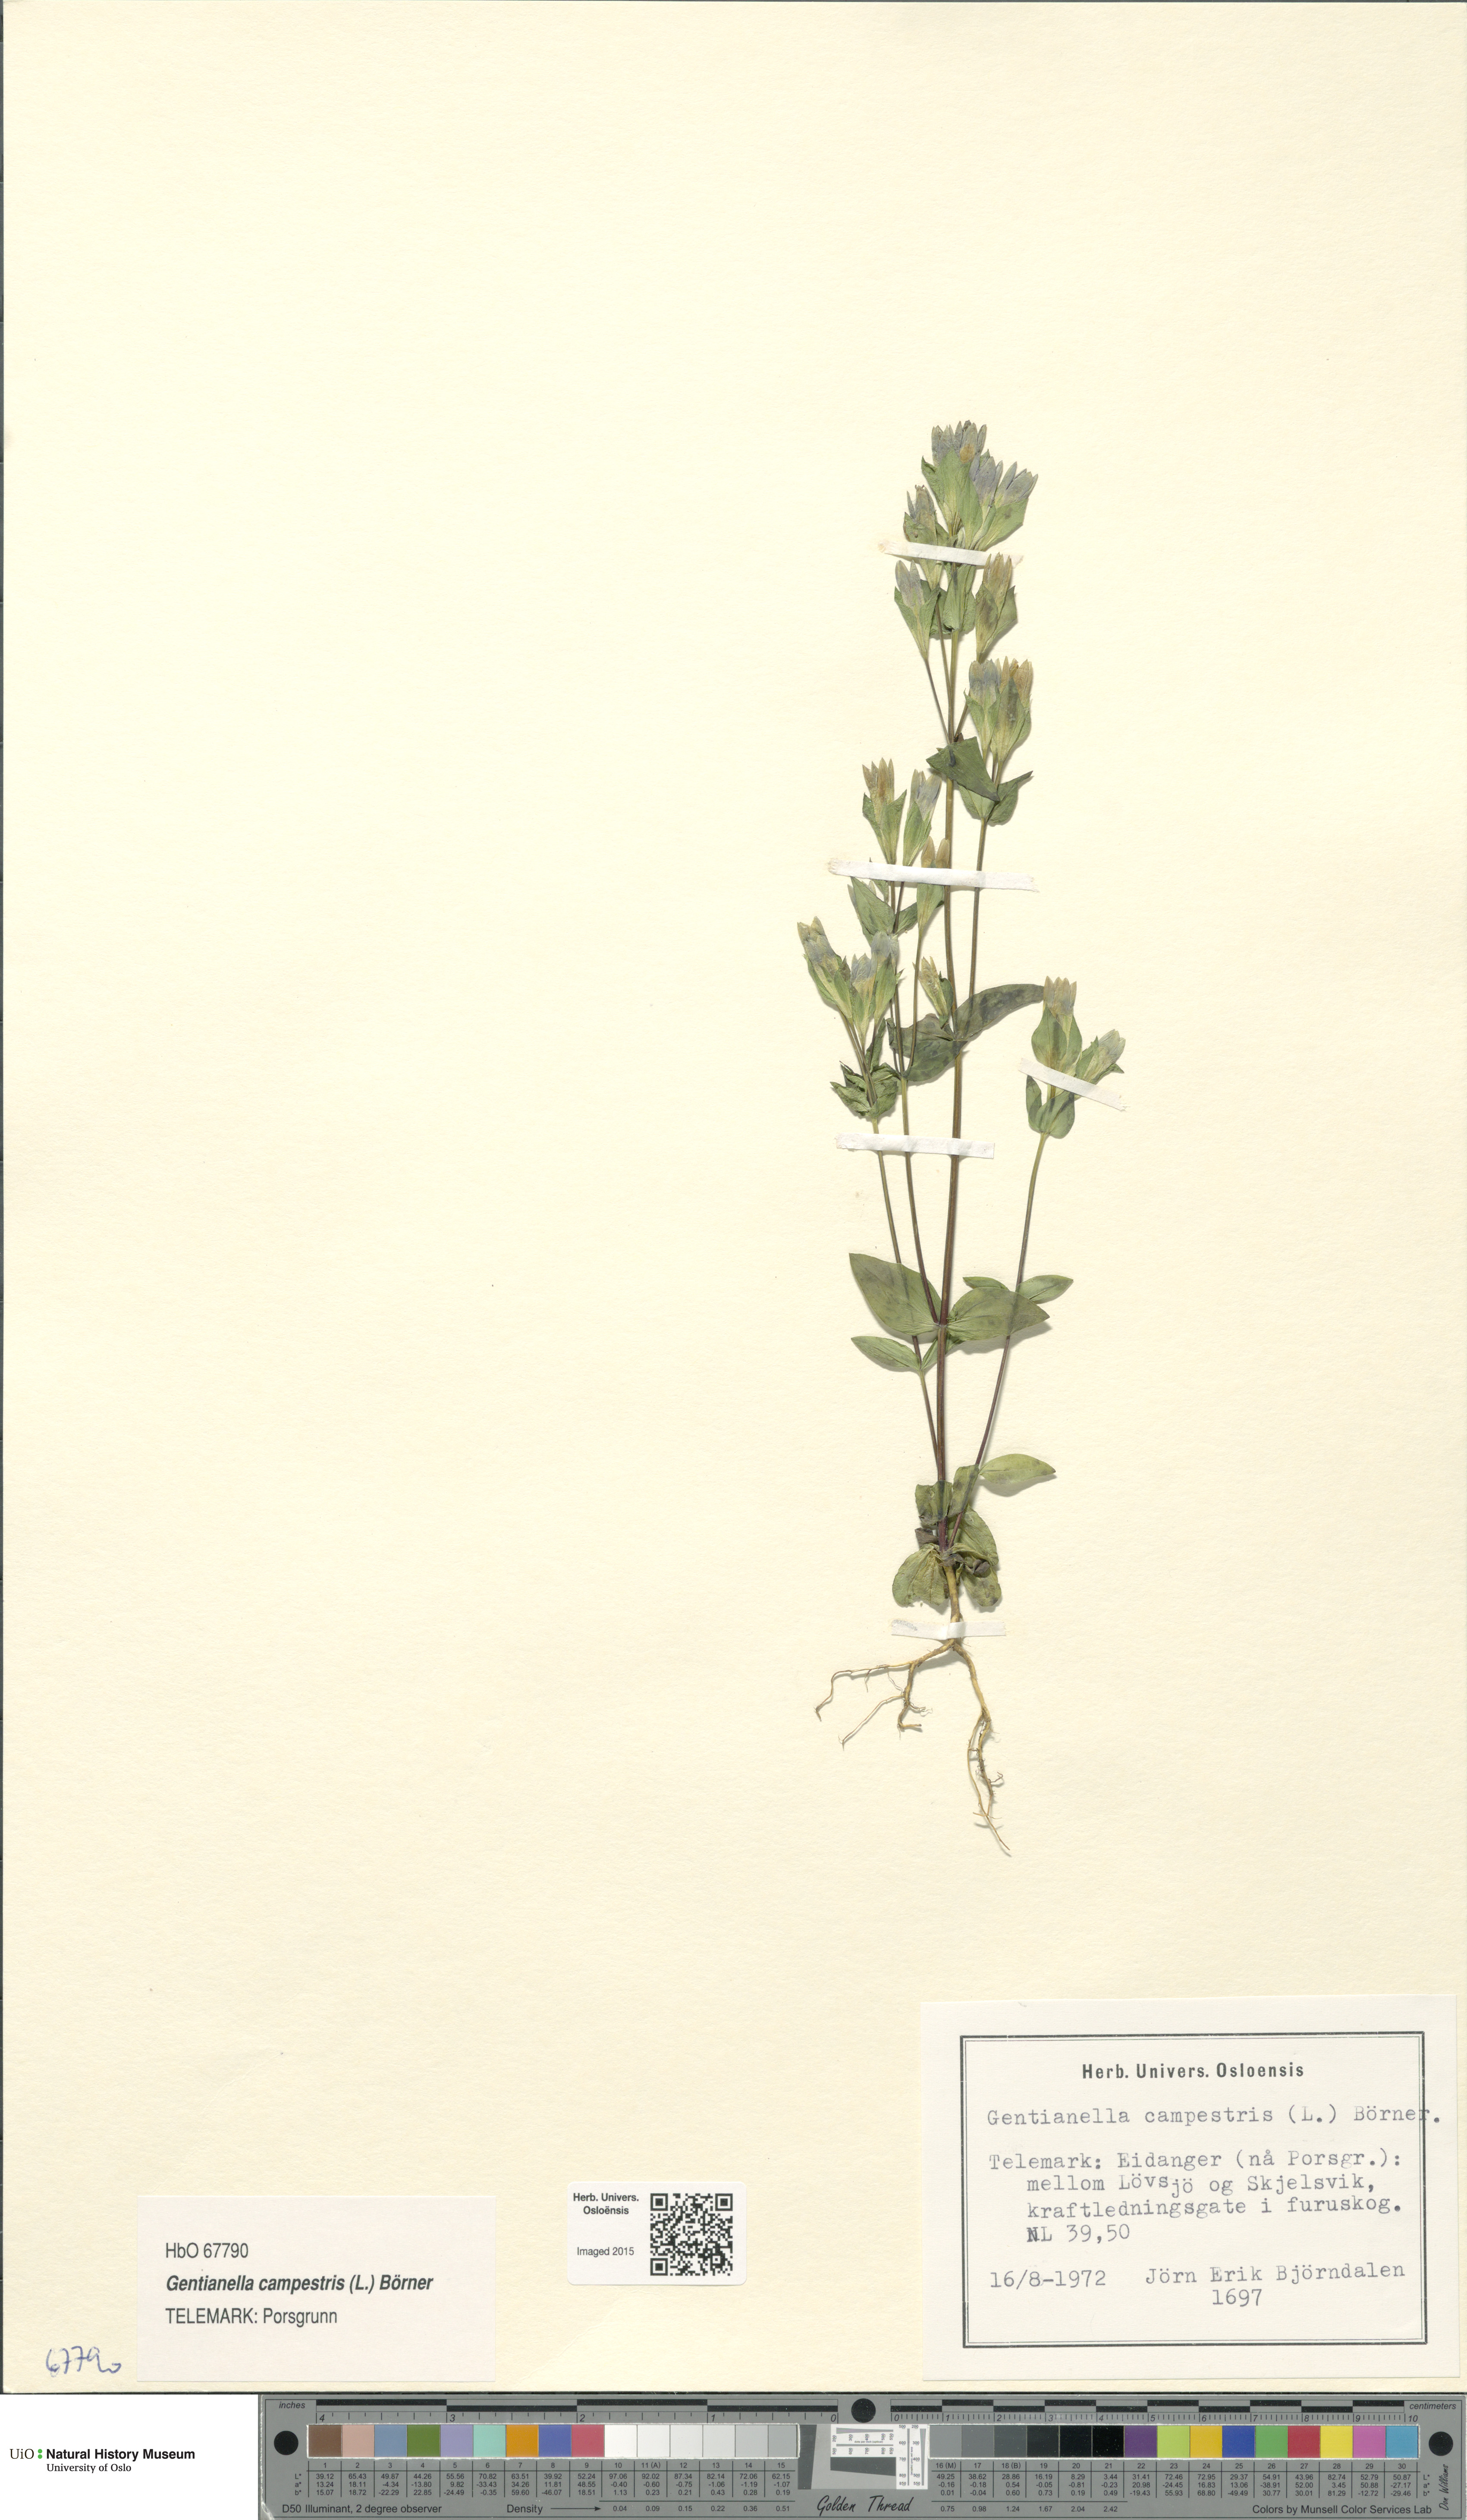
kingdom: Plantae
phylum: Tracheophyta
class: Magnoliopsida
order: Gentianales
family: Gentianaceae
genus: Gentianella
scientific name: Gentianella campestris
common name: Field gentian
